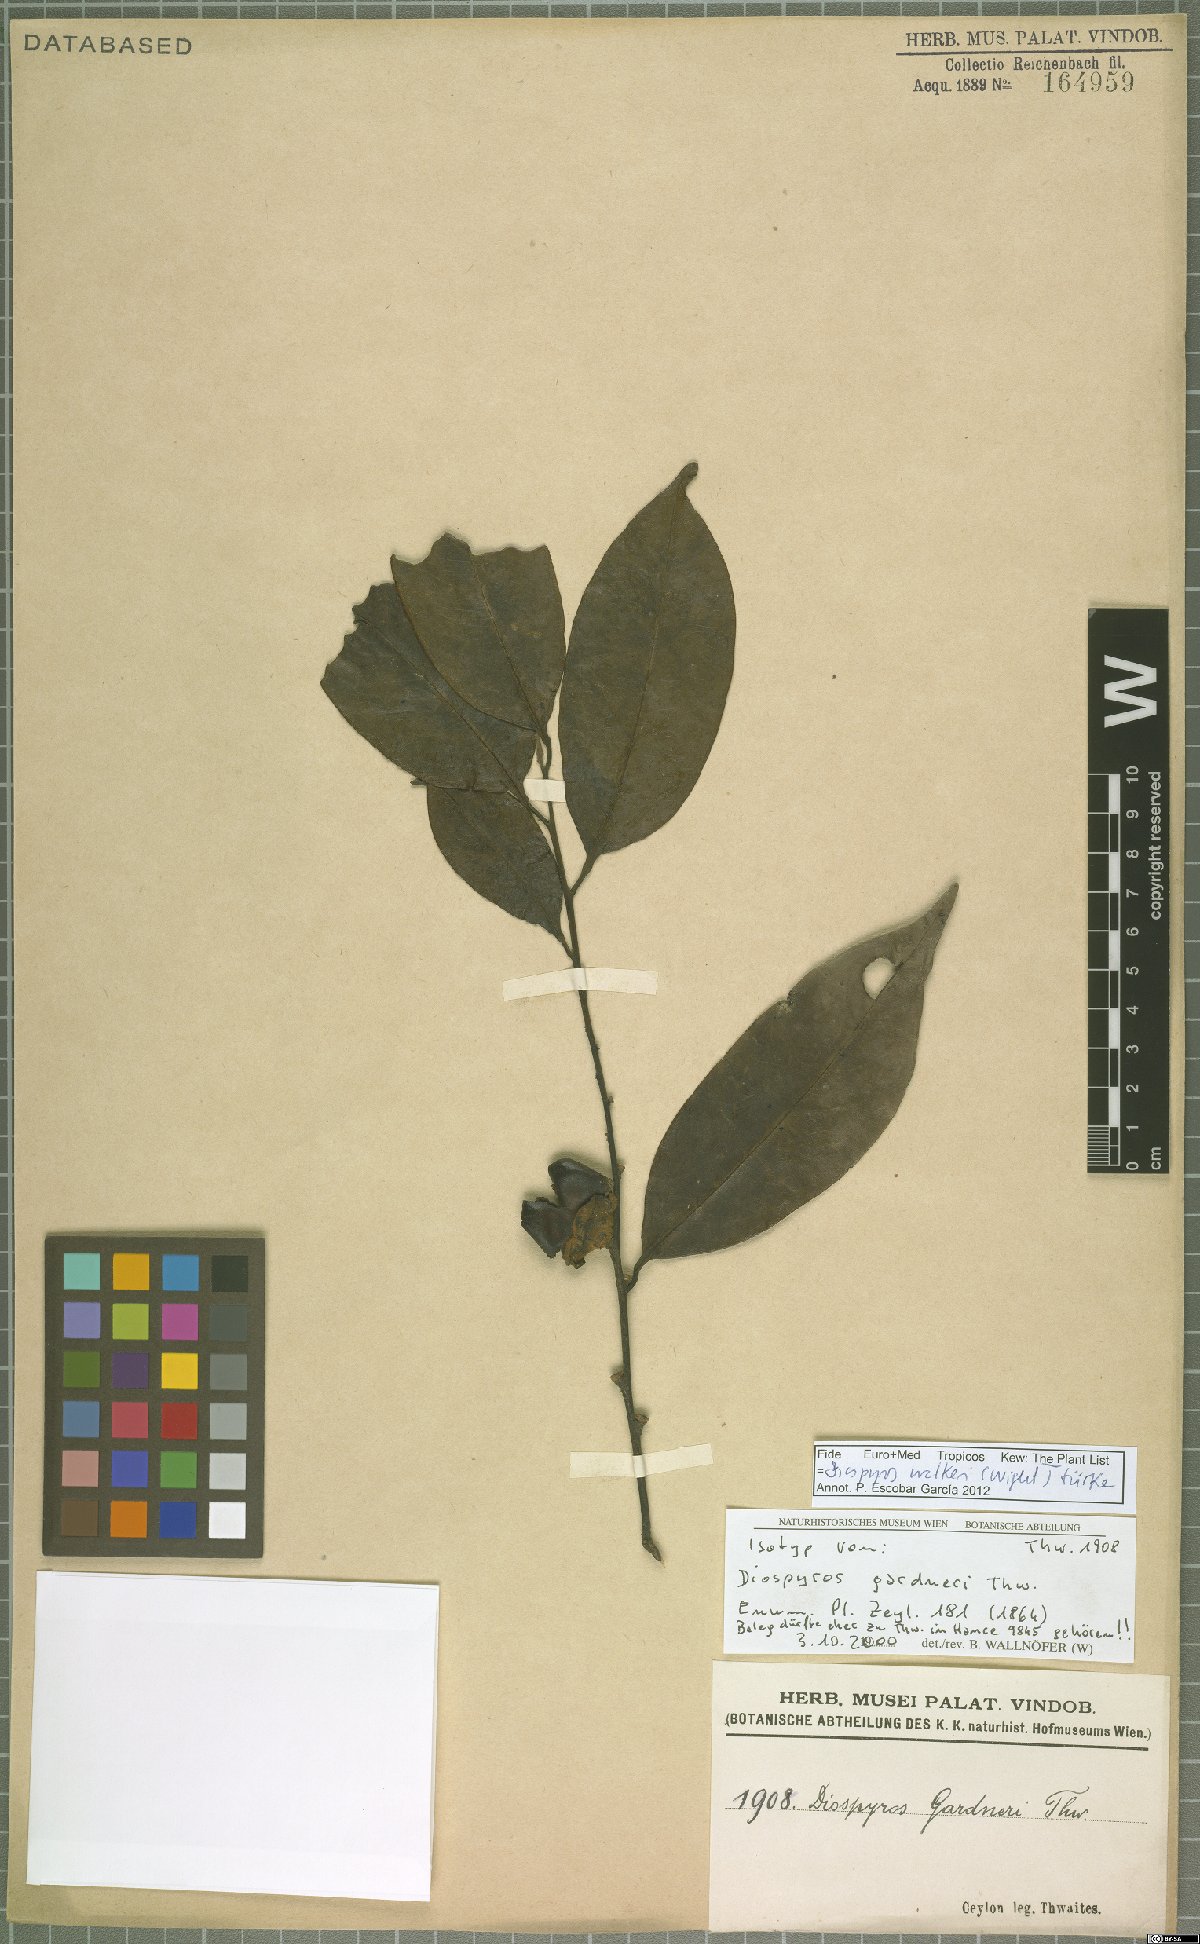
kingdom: Plantae
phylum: Tracheophyta
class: Magnoliopsida
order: Ericales
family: Ebenaceae
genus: Diospyros
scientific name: Diospyros walkeri
